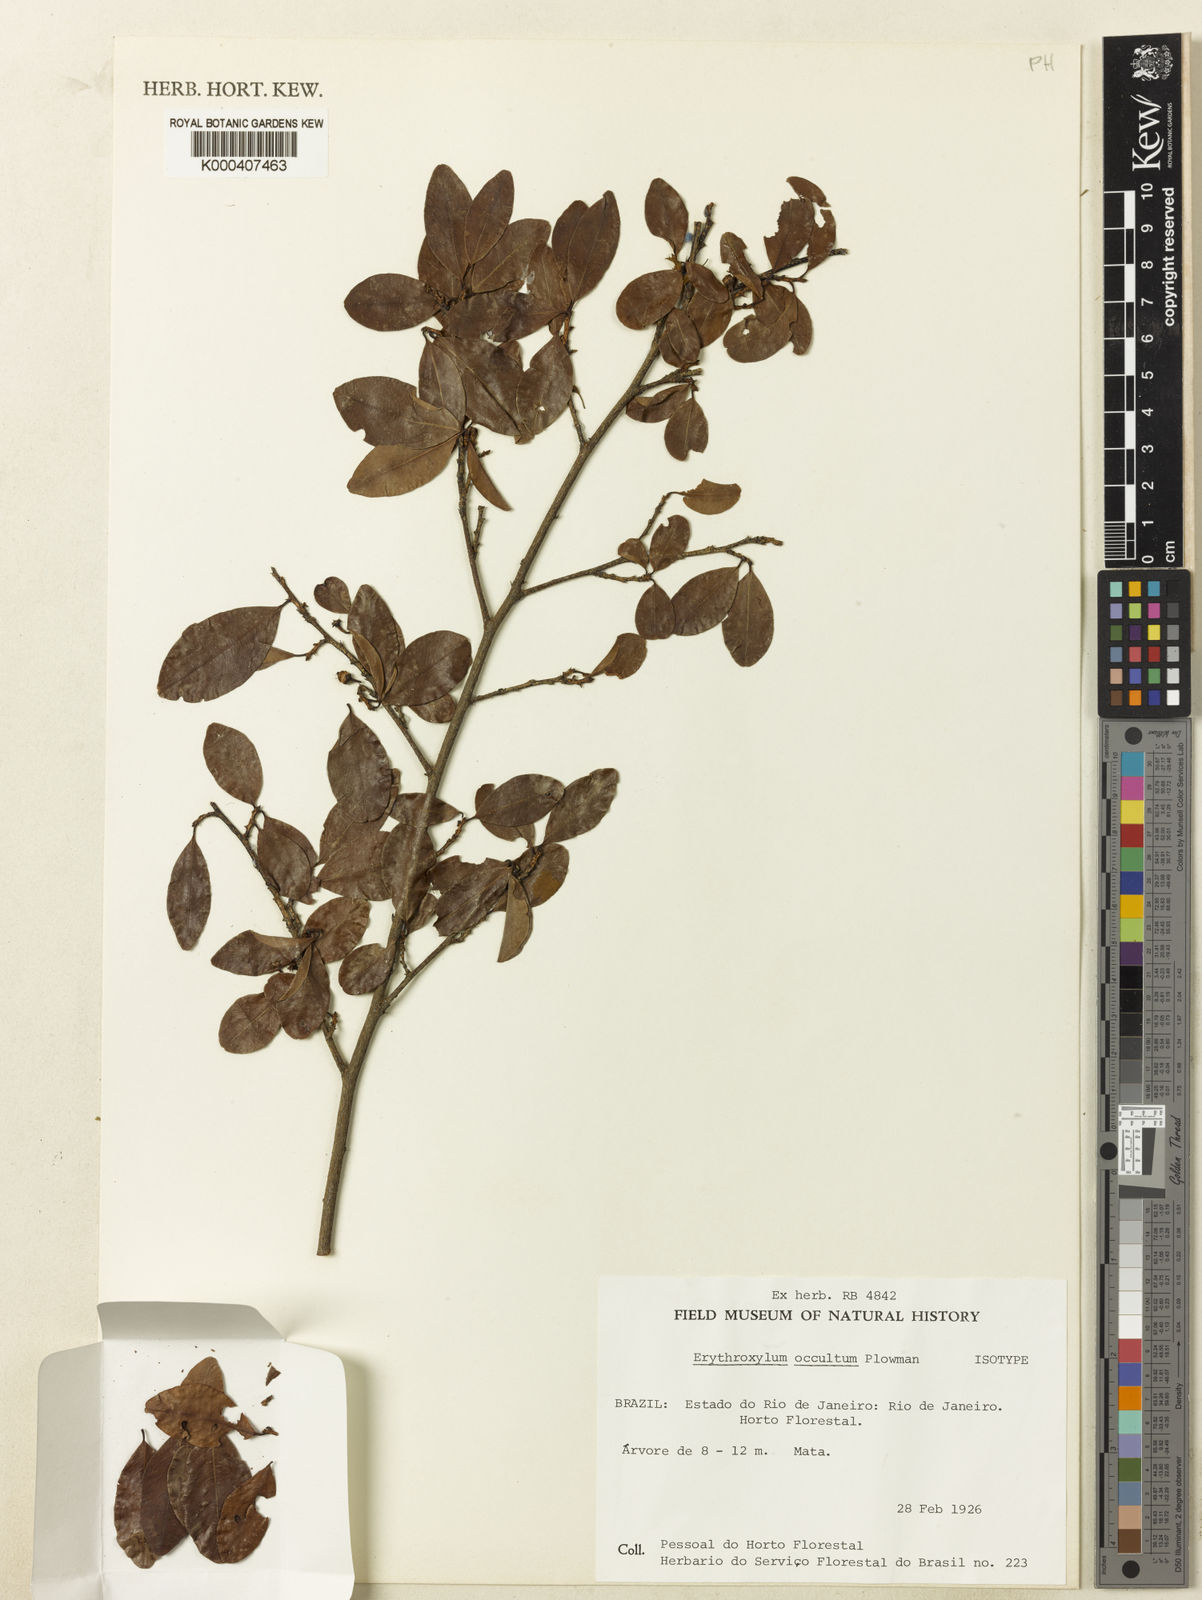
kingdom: Plantae
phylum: Tracheophyta
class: Magnoliopsida
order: Malpighiales
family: Erythroxylaceae
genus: Erythroxylum
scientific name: Erythroxylum occultum
